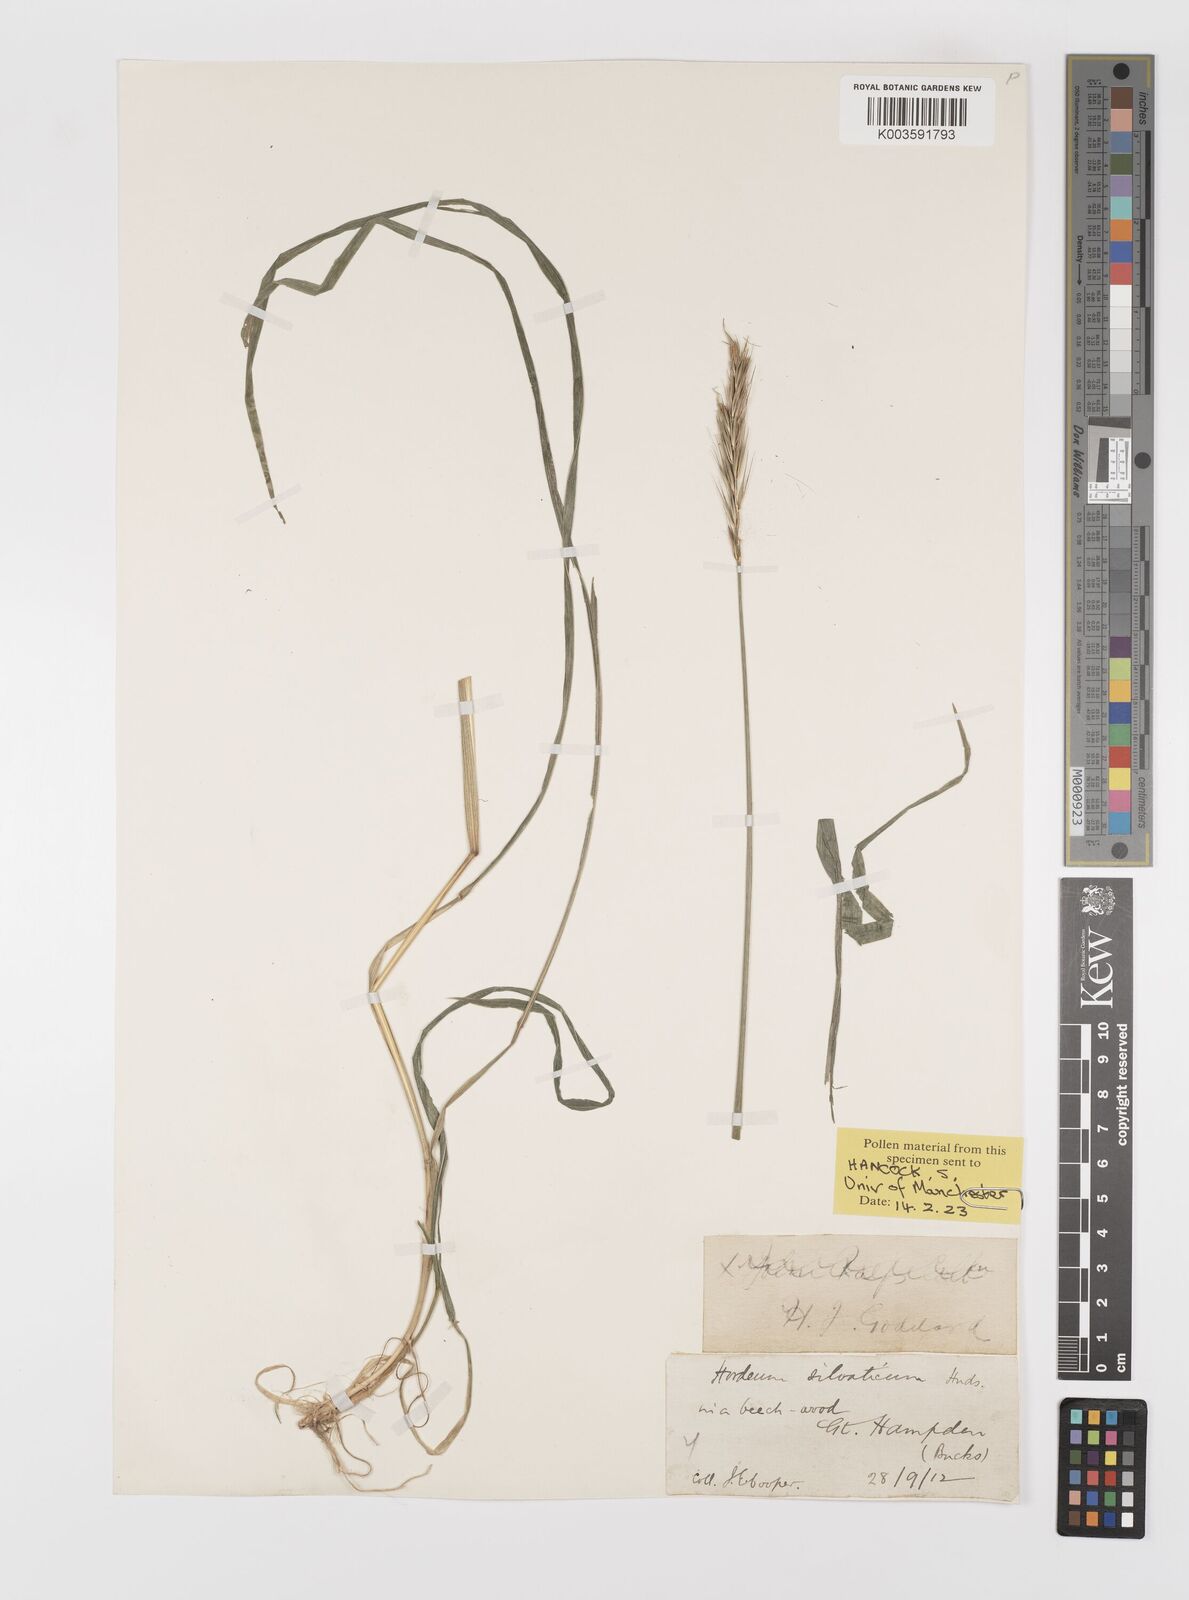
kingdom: Plantae
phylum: Tracheophyta
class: Liliopsida
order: Poales
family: Poaceae
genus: Hordelymus
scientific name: Hordelymus europaeus
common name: Wood-barley
